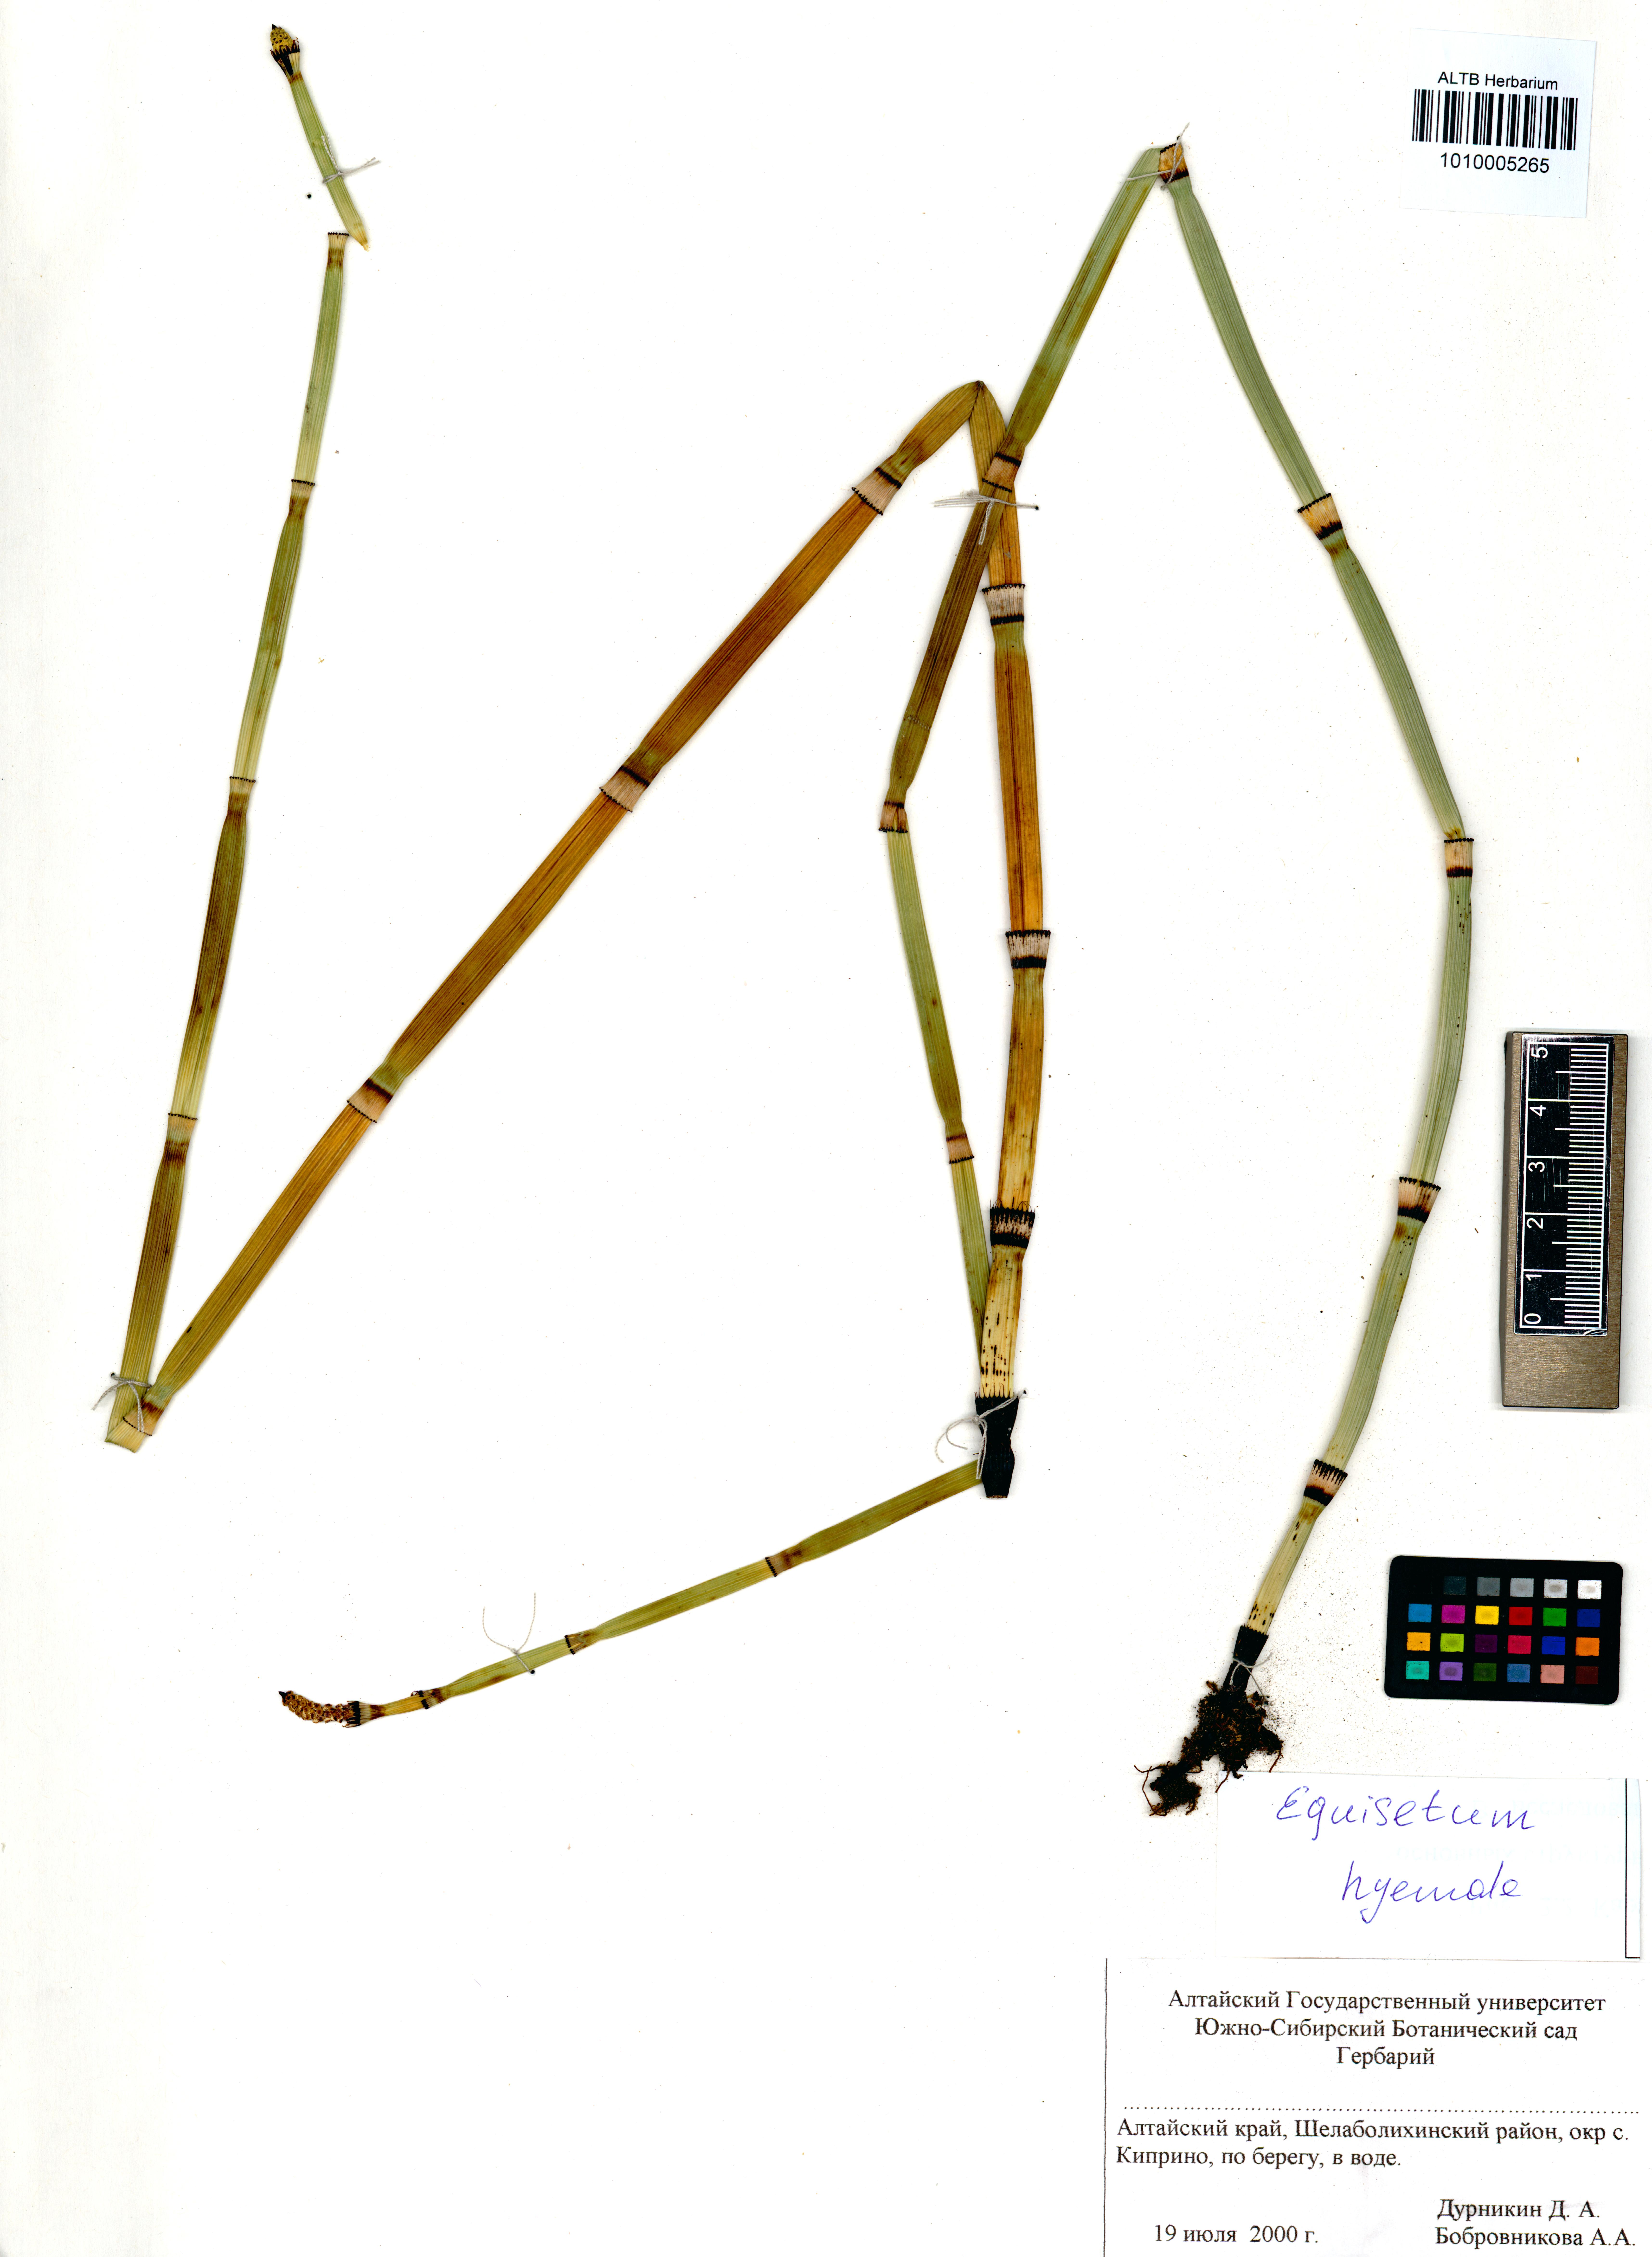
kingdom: Plantae
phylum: Tracheophyta
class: Polypodiopsida
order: Equisetales
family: Equisetaceae
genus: Equisetum
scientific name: Equisetum hyemale
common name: Rough horsetail
